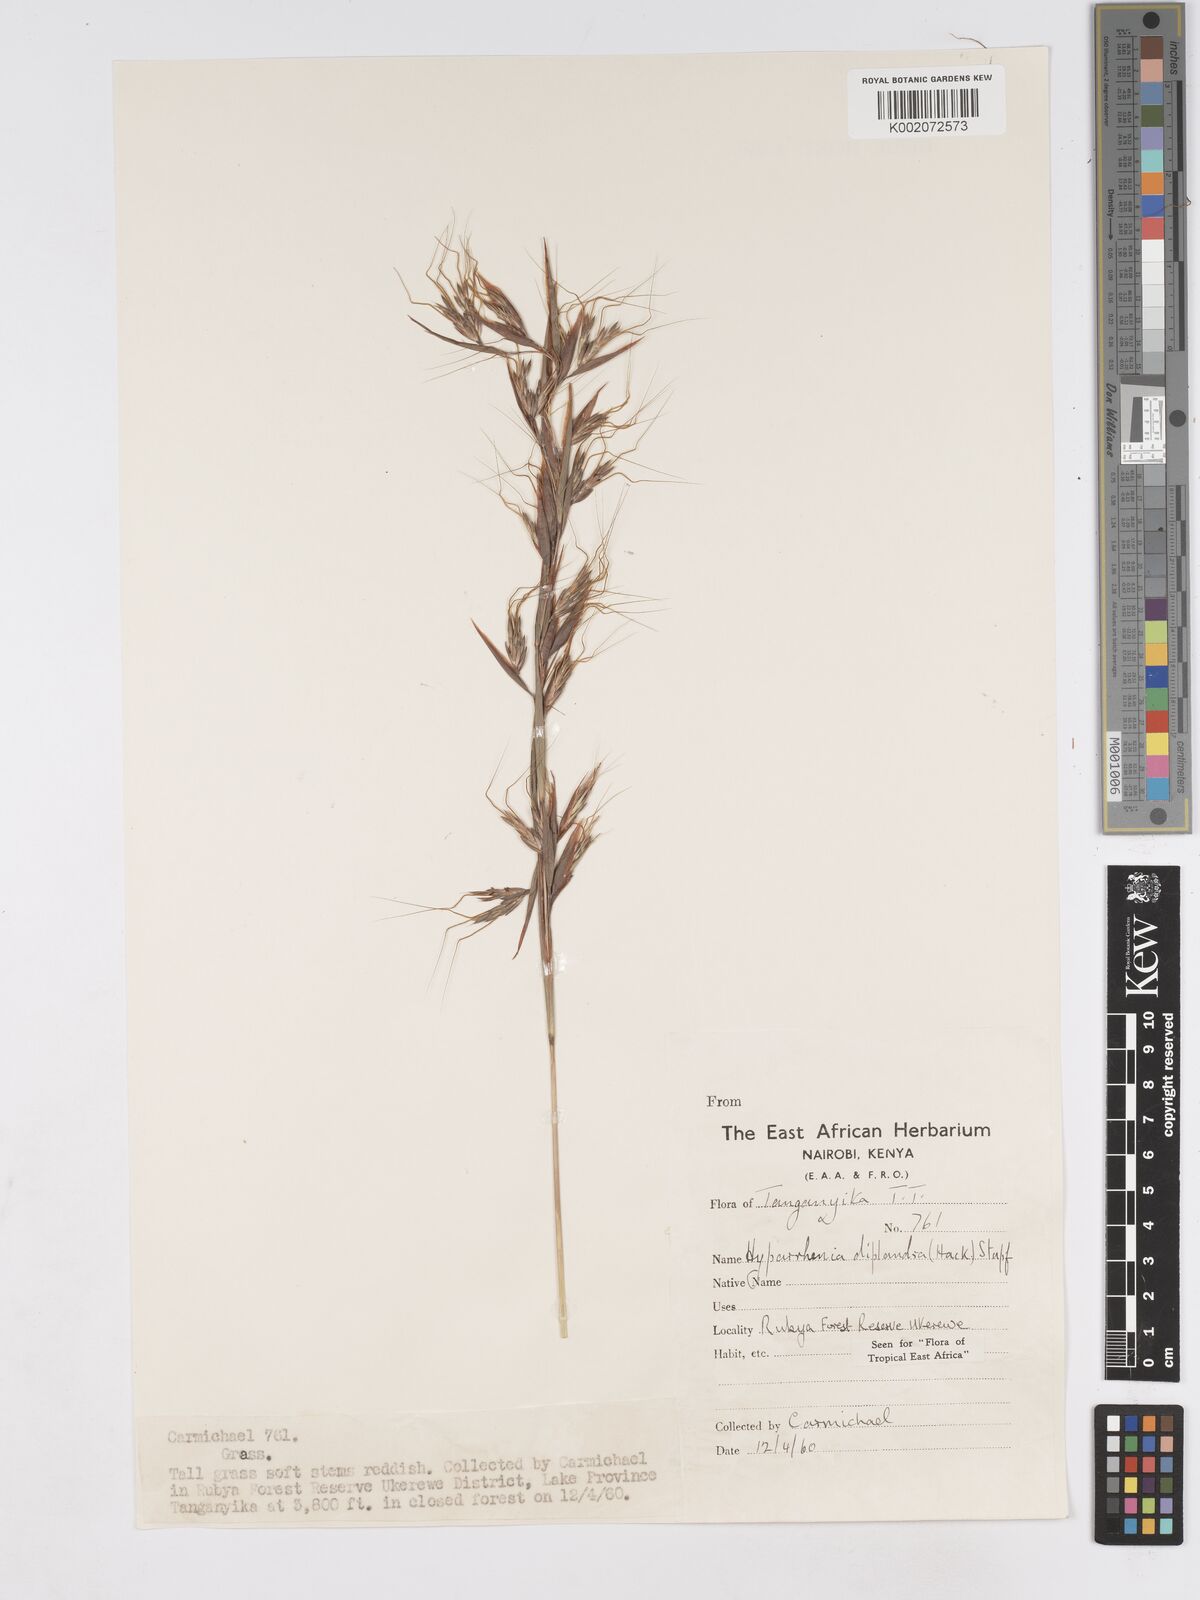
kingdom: Plantae
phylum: Tracheophyta
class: Liliopsida
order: Poales
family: Poaceae
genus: Hyparrhenia
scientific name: Hyparrhenia diplandra
